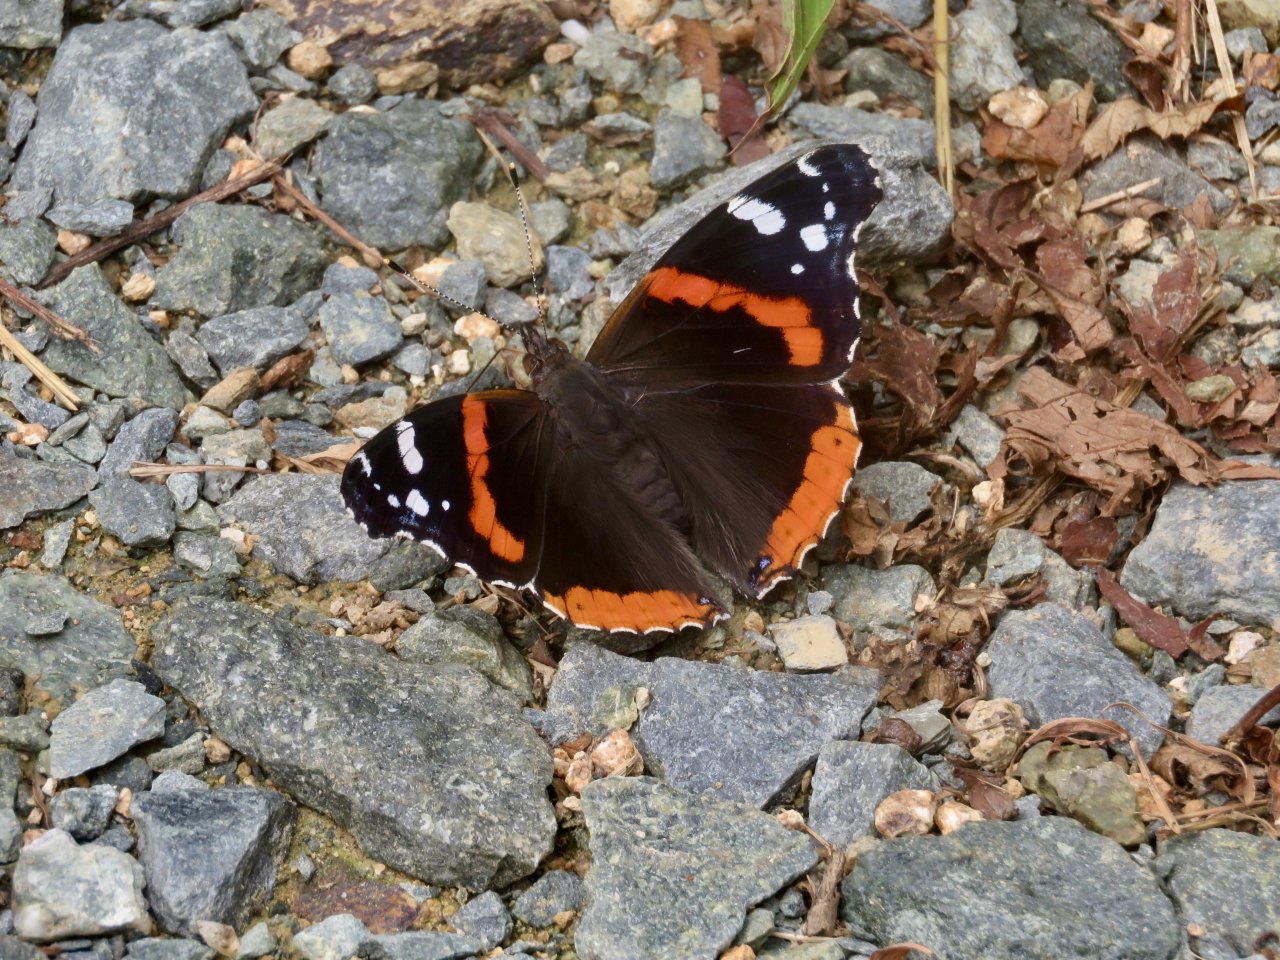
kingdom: Animalia
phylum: Arthropoda
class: Insecta
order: Lepidoptera
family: Nymphalidae
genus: Vanessa
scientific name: Vanessa atalanta
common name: Red Admiral
